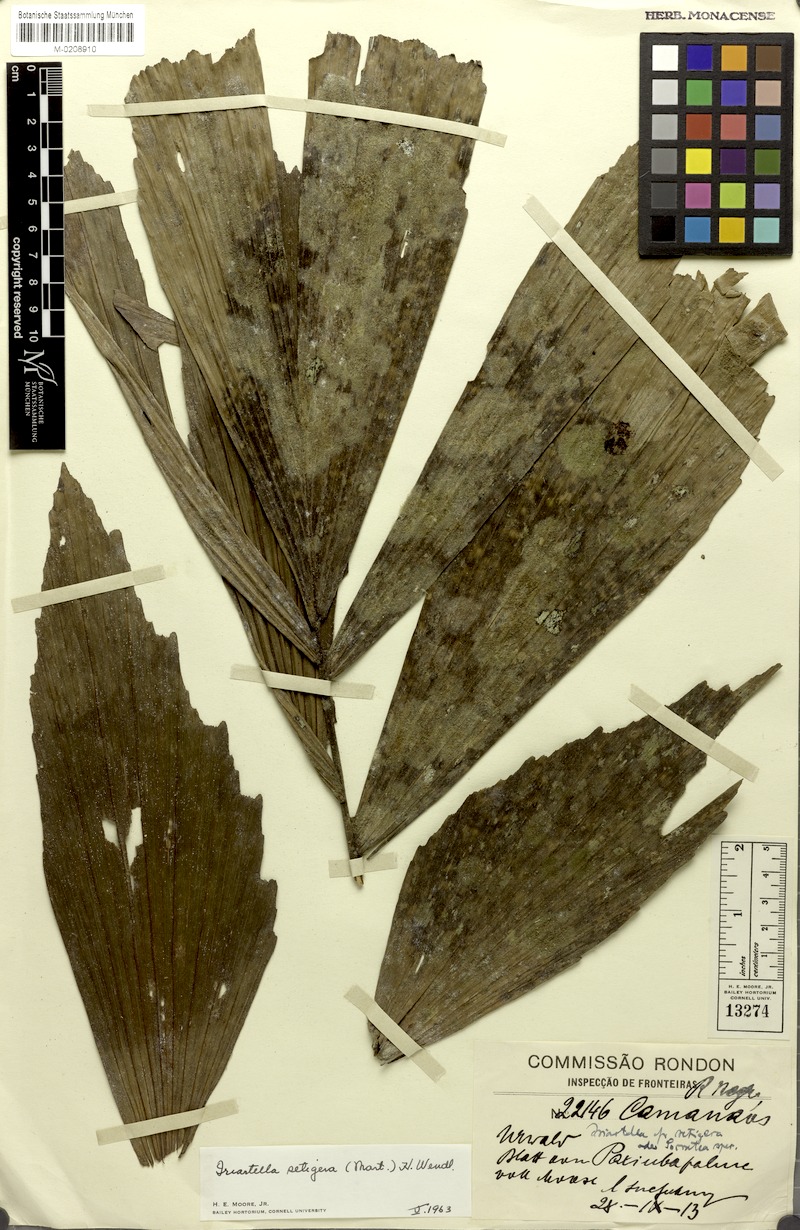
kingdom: Plantae
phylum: Tracheophyta
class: Liliopsida
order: Arecales
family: Arecaceae
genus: Iriartella
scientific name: Iriartella setigera
